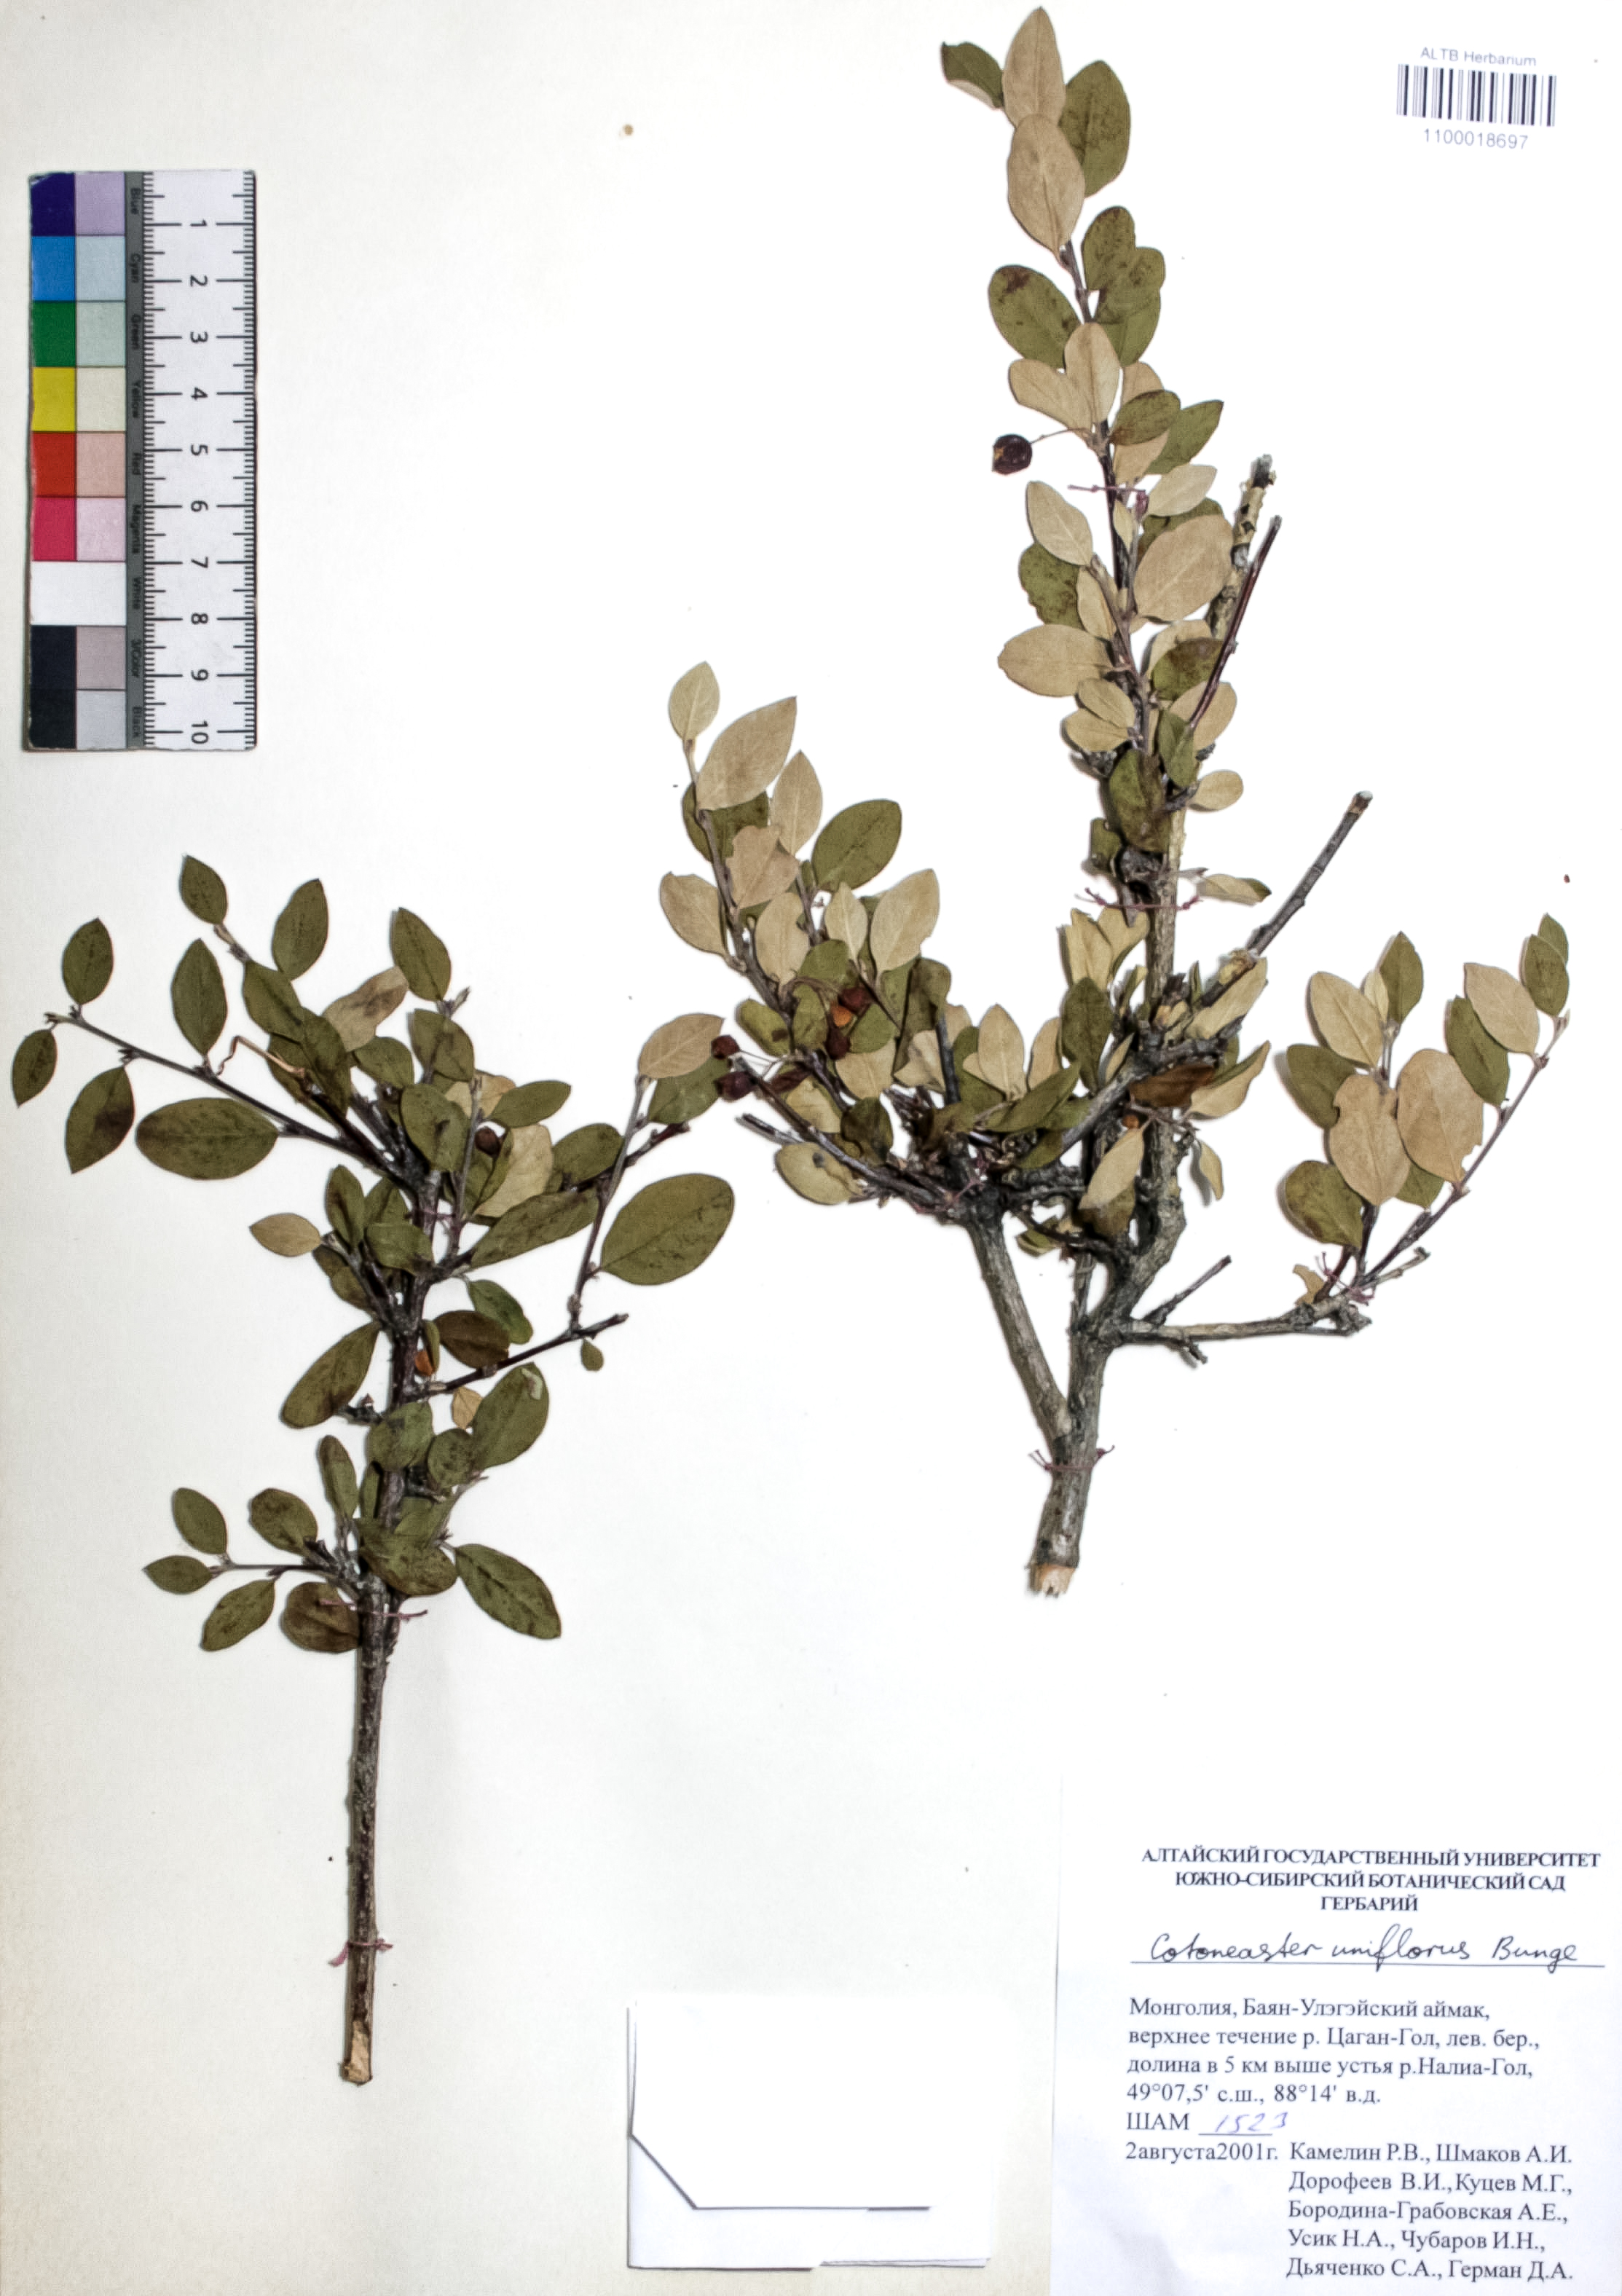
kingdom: Plantae
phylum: Tracheophyta
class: Magnoliopsida
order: Rosales
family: Rosaceae
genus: Cotoneaster
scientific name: Cotoneaster uniflorus
